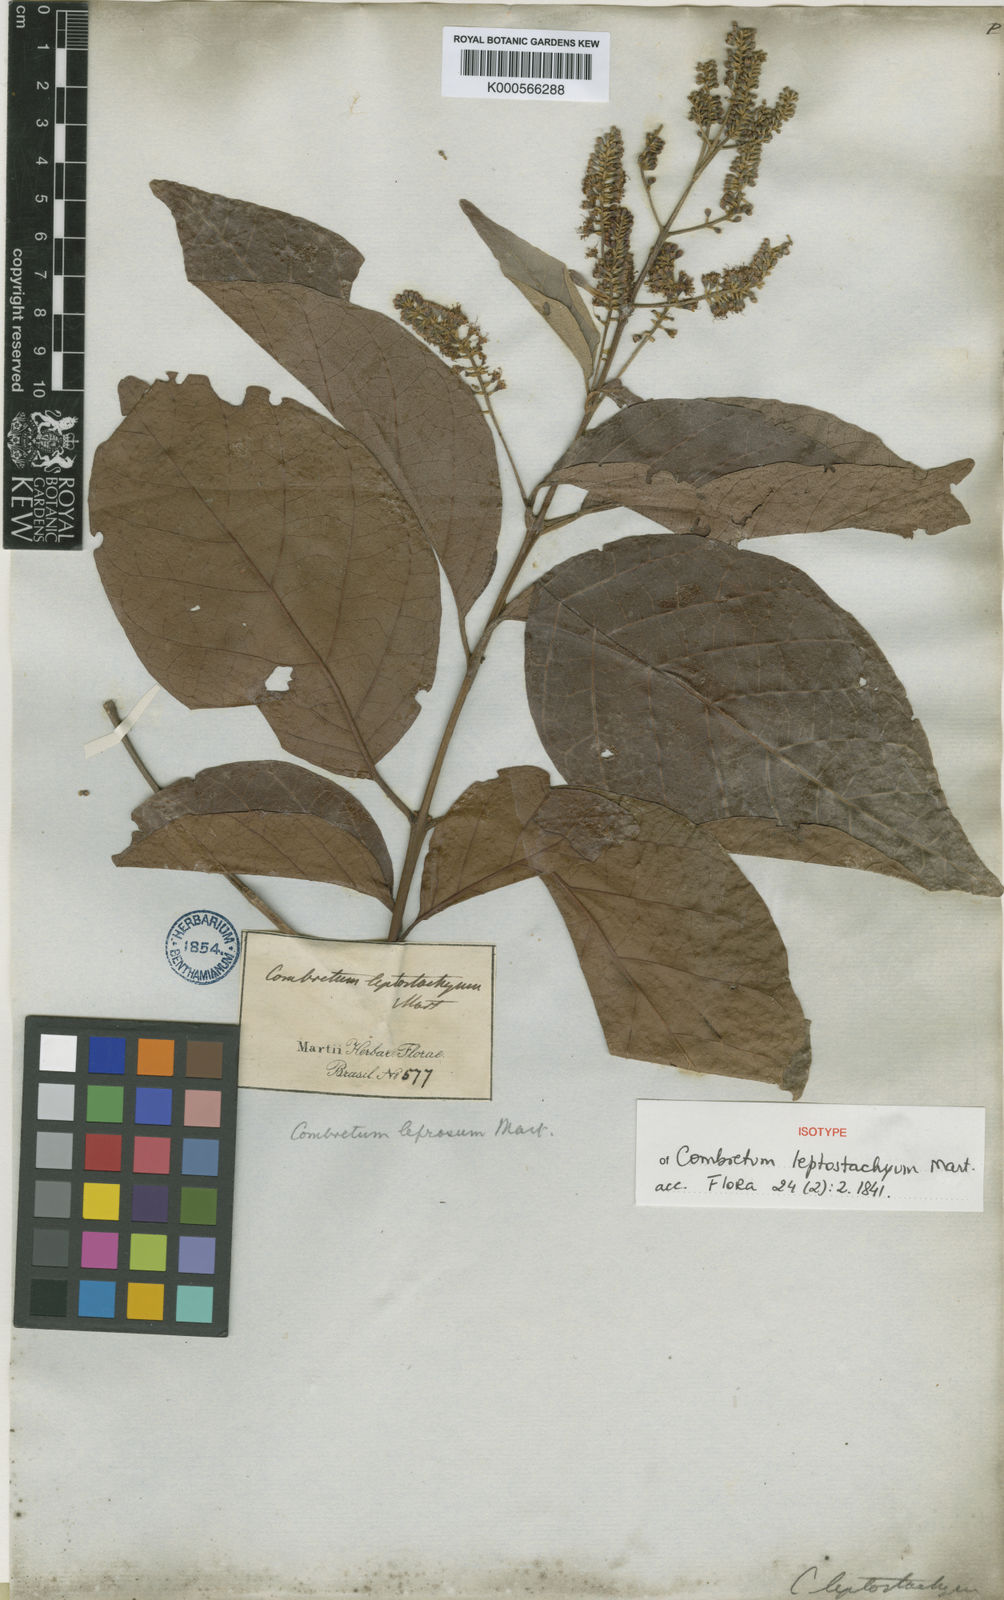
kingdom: Plantae
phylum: Tracheophyta
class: Magnoliopsida
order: Myrtales
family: Combretaceae
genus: Combretum
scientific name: Combretum leprosum
